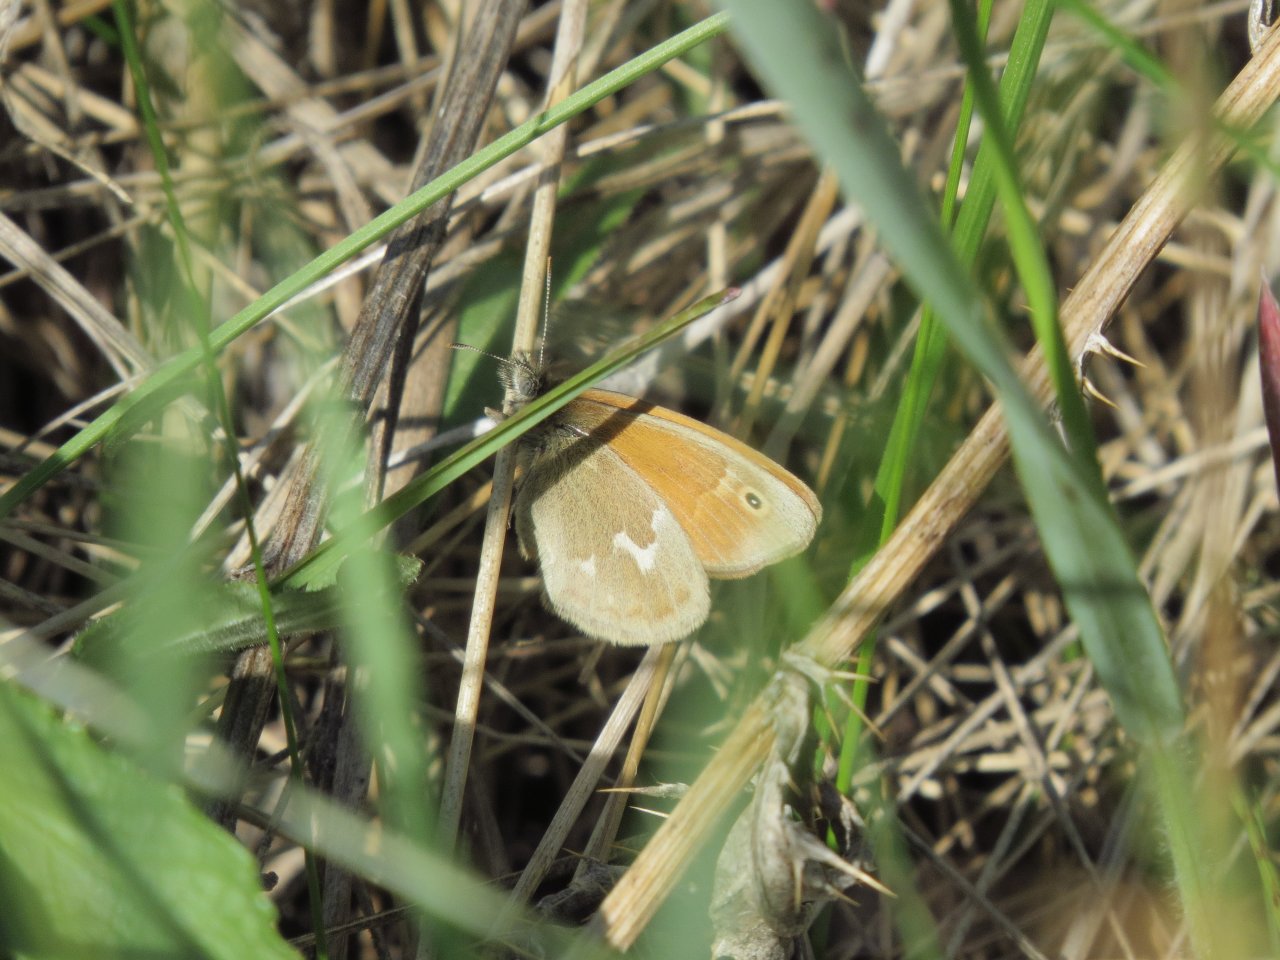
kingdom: Animalia
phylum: Arthropoda
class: Insecta
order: Lepidoptera
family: Nymphalidae
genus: Coenonympha
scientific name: Coenonympha tullia
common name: Large Heath
